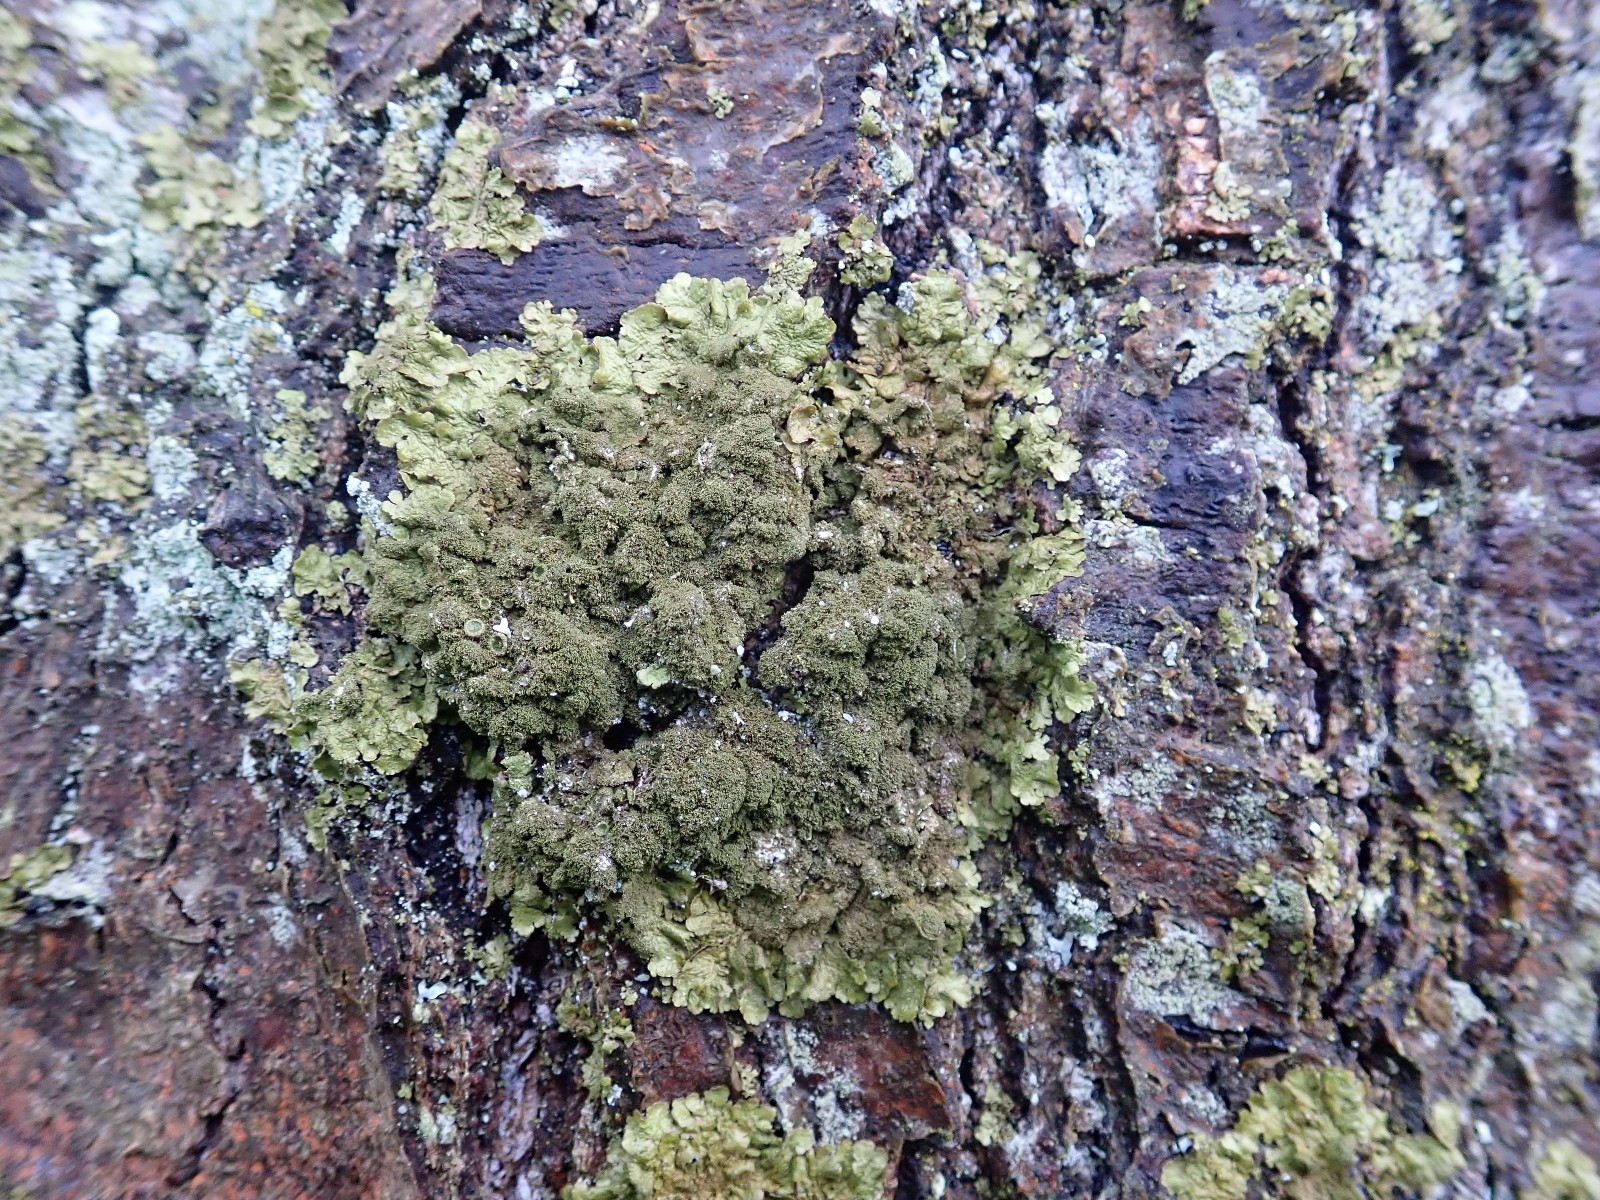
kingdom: Fungi
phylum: Ascomycota
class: Lecanoromycetes
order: Lecanorales
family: Parmeliaceae
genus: Melanelixia
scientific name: Melanelixia glabratula
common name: glinsende skållav
